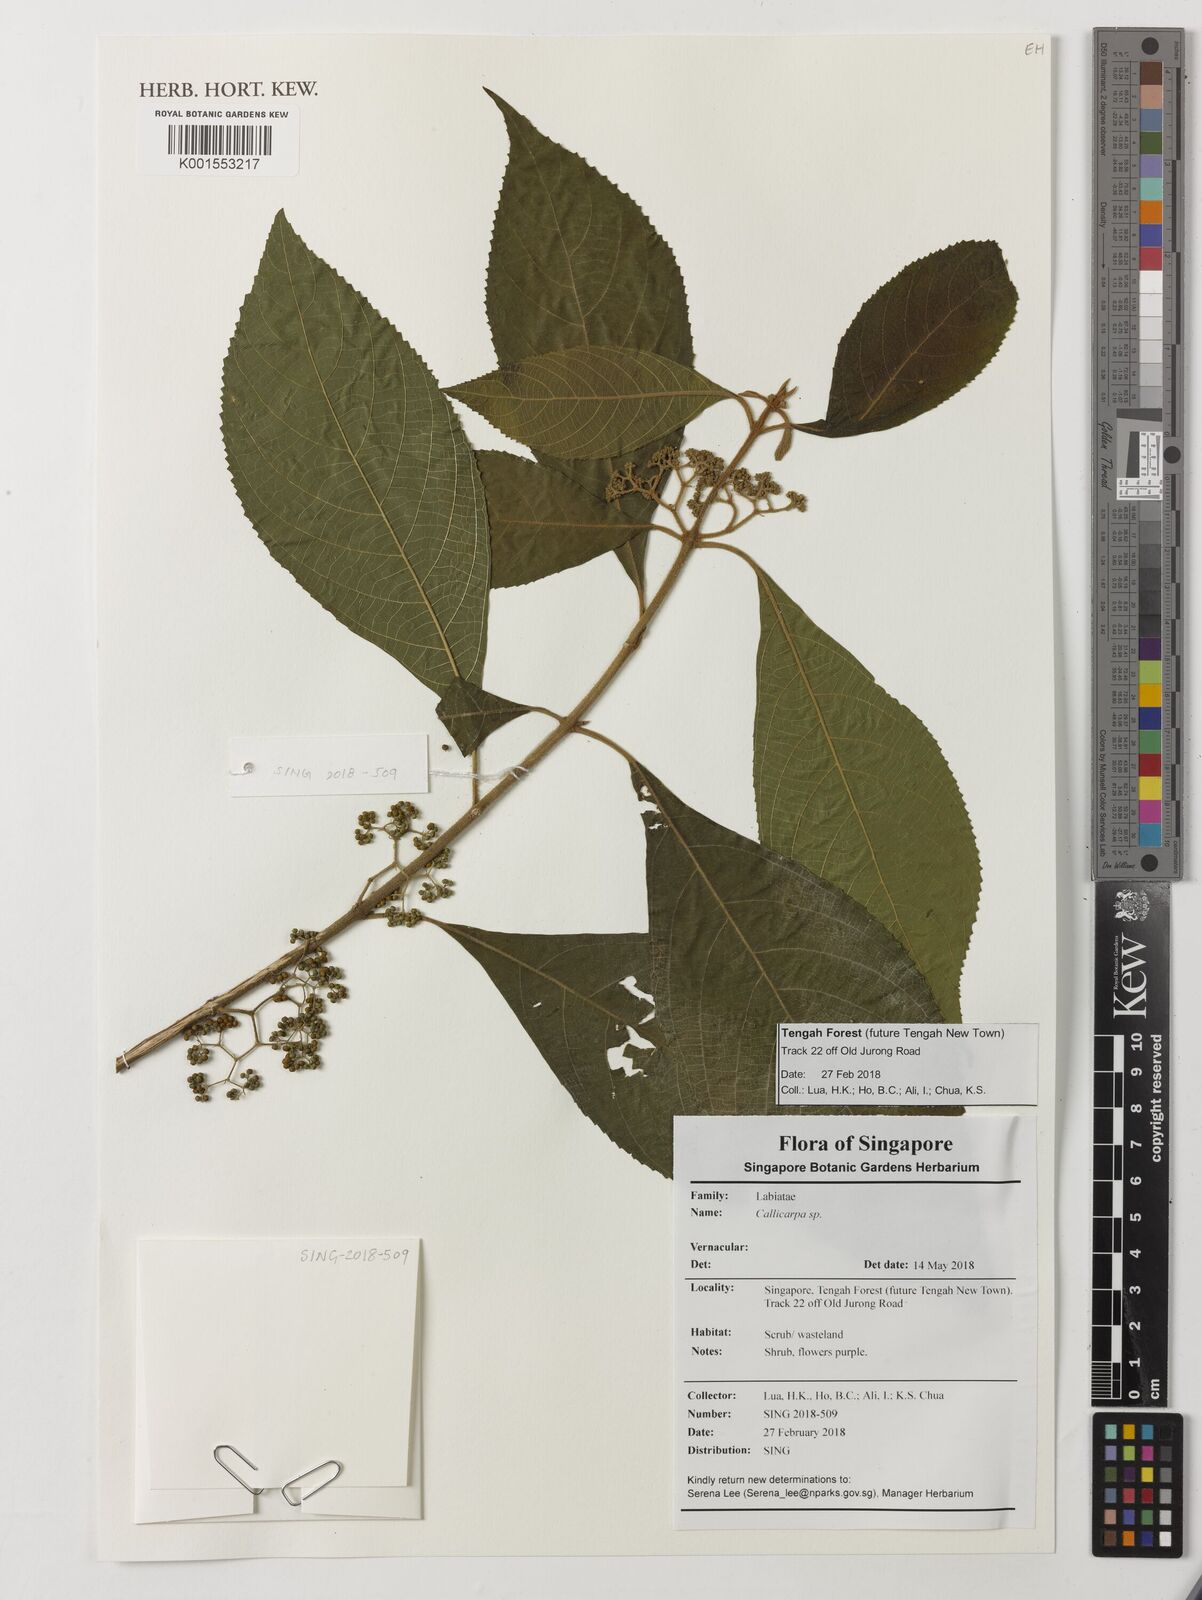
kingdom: Plantae
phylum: Tracheophyta
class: Magnoliopsida
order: Lamiales
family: Lamiaceae
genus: Callicarpa
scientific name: Callicarpa
